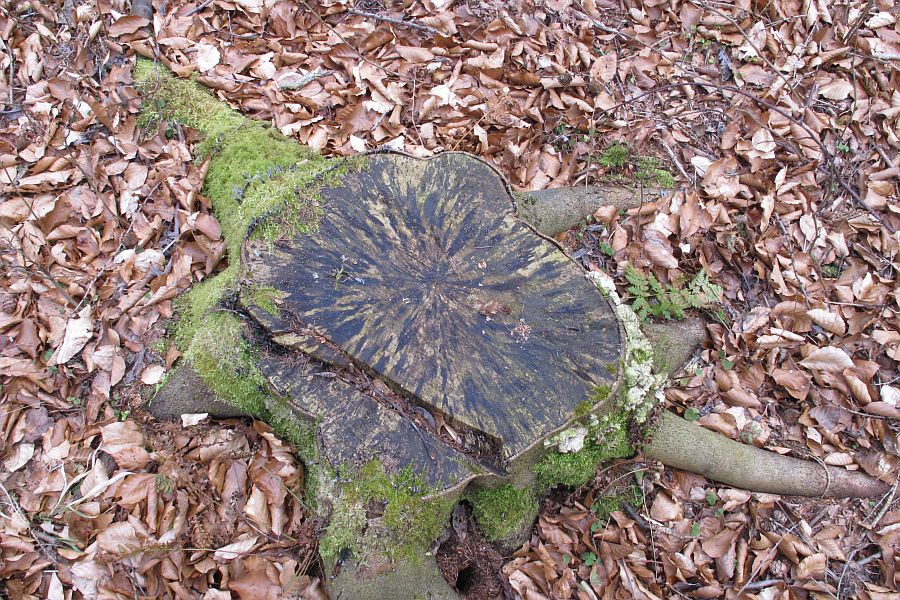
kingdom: Fungi
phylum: Ascomycota
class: Leotiomycetes
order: Helotiales
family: Helotiaceae
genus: Bispora
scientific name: Bispora pallescens
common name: måtte-snitskive
